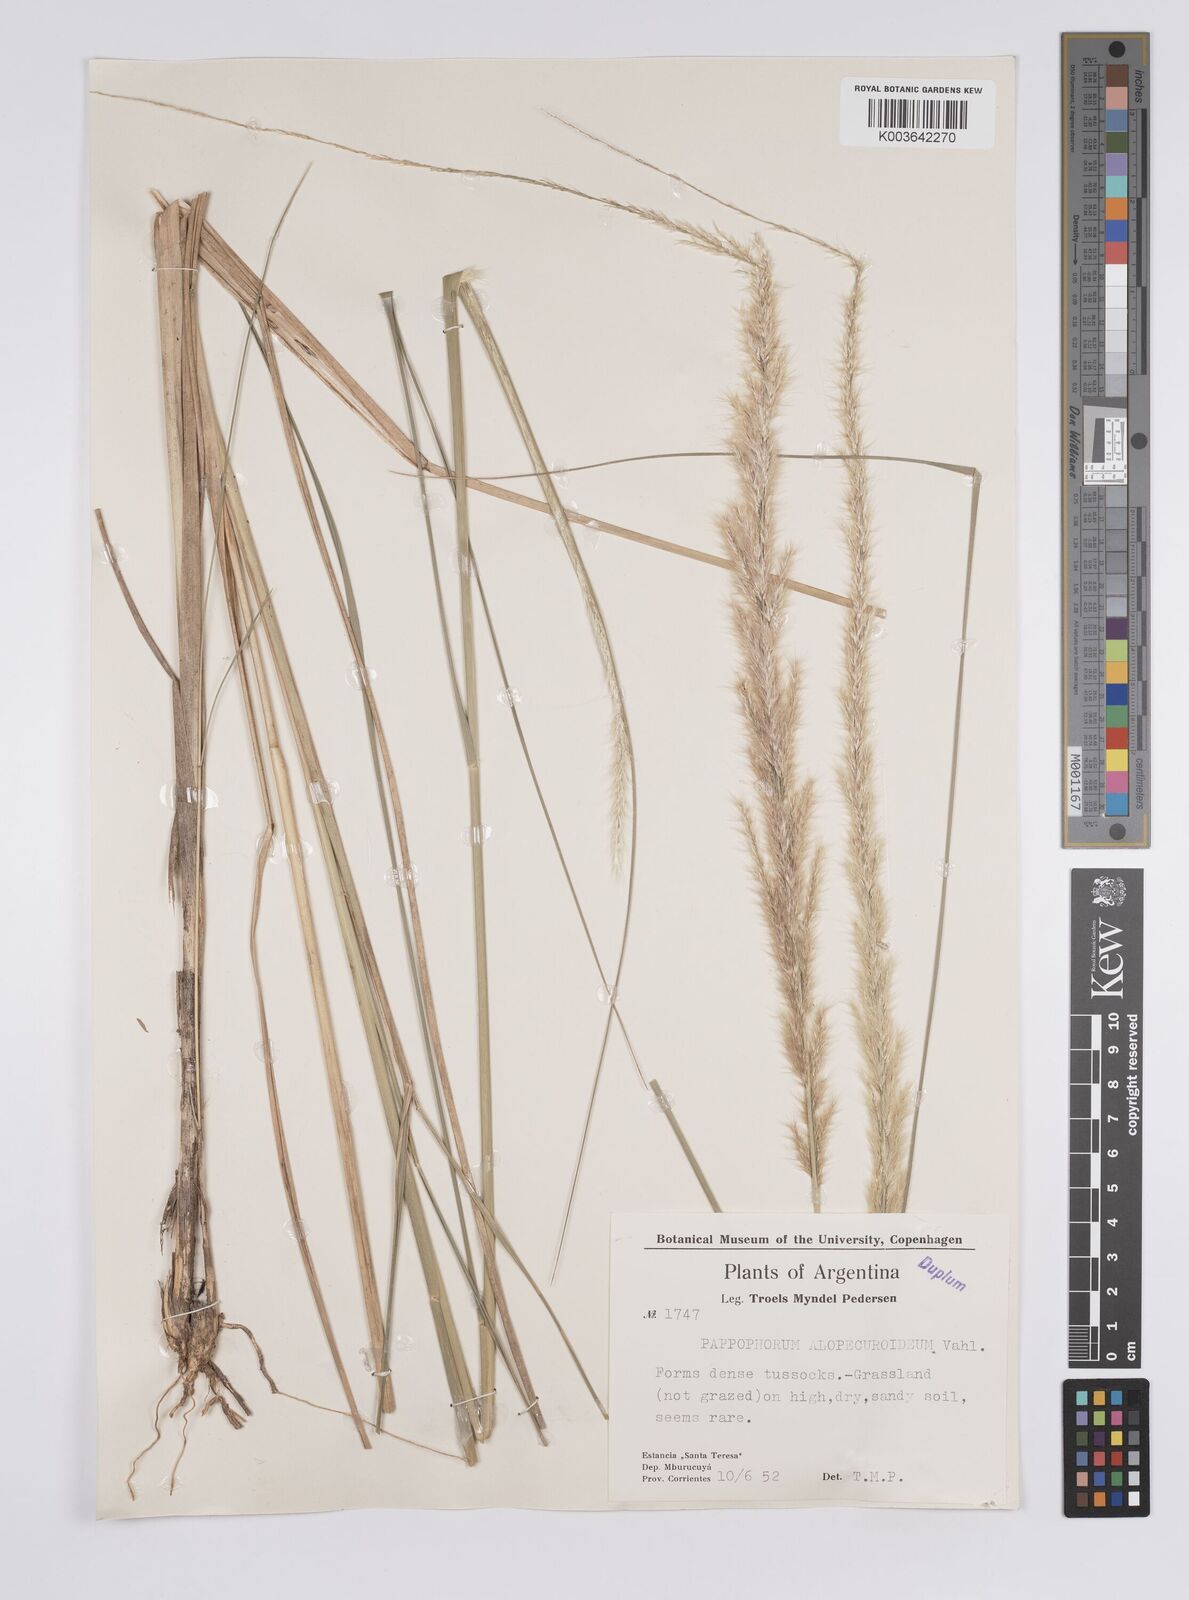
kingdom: Plantae
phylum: Tracheophyta
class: Liliopsida
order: Poales
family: Poaceae
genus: Pappophorum
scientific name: Pappophorum pappiferum
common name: Crabgrass
